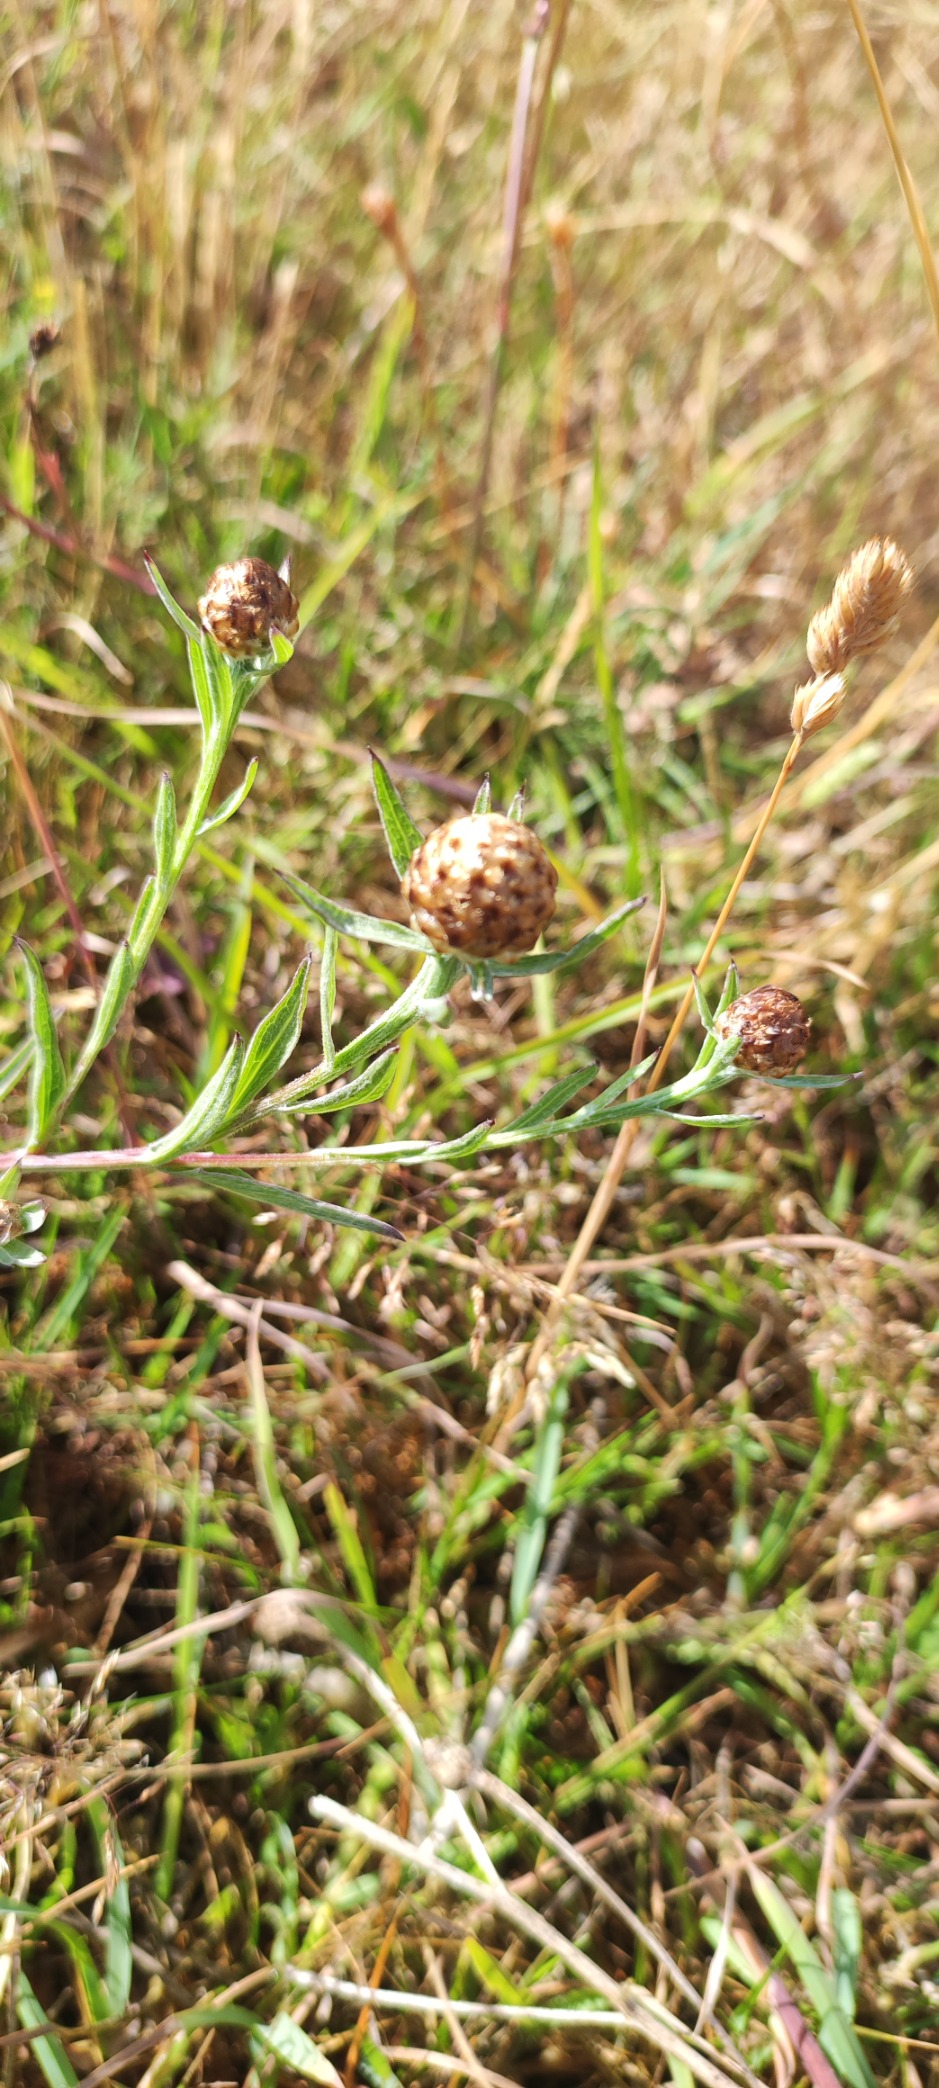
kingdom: Plantae
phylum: Tracheophyta
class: Magnoliopsida
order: Asterales
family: Asteraceae
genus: Centaurea
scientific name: Centaurea jacea
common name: Almindelig knopurt
